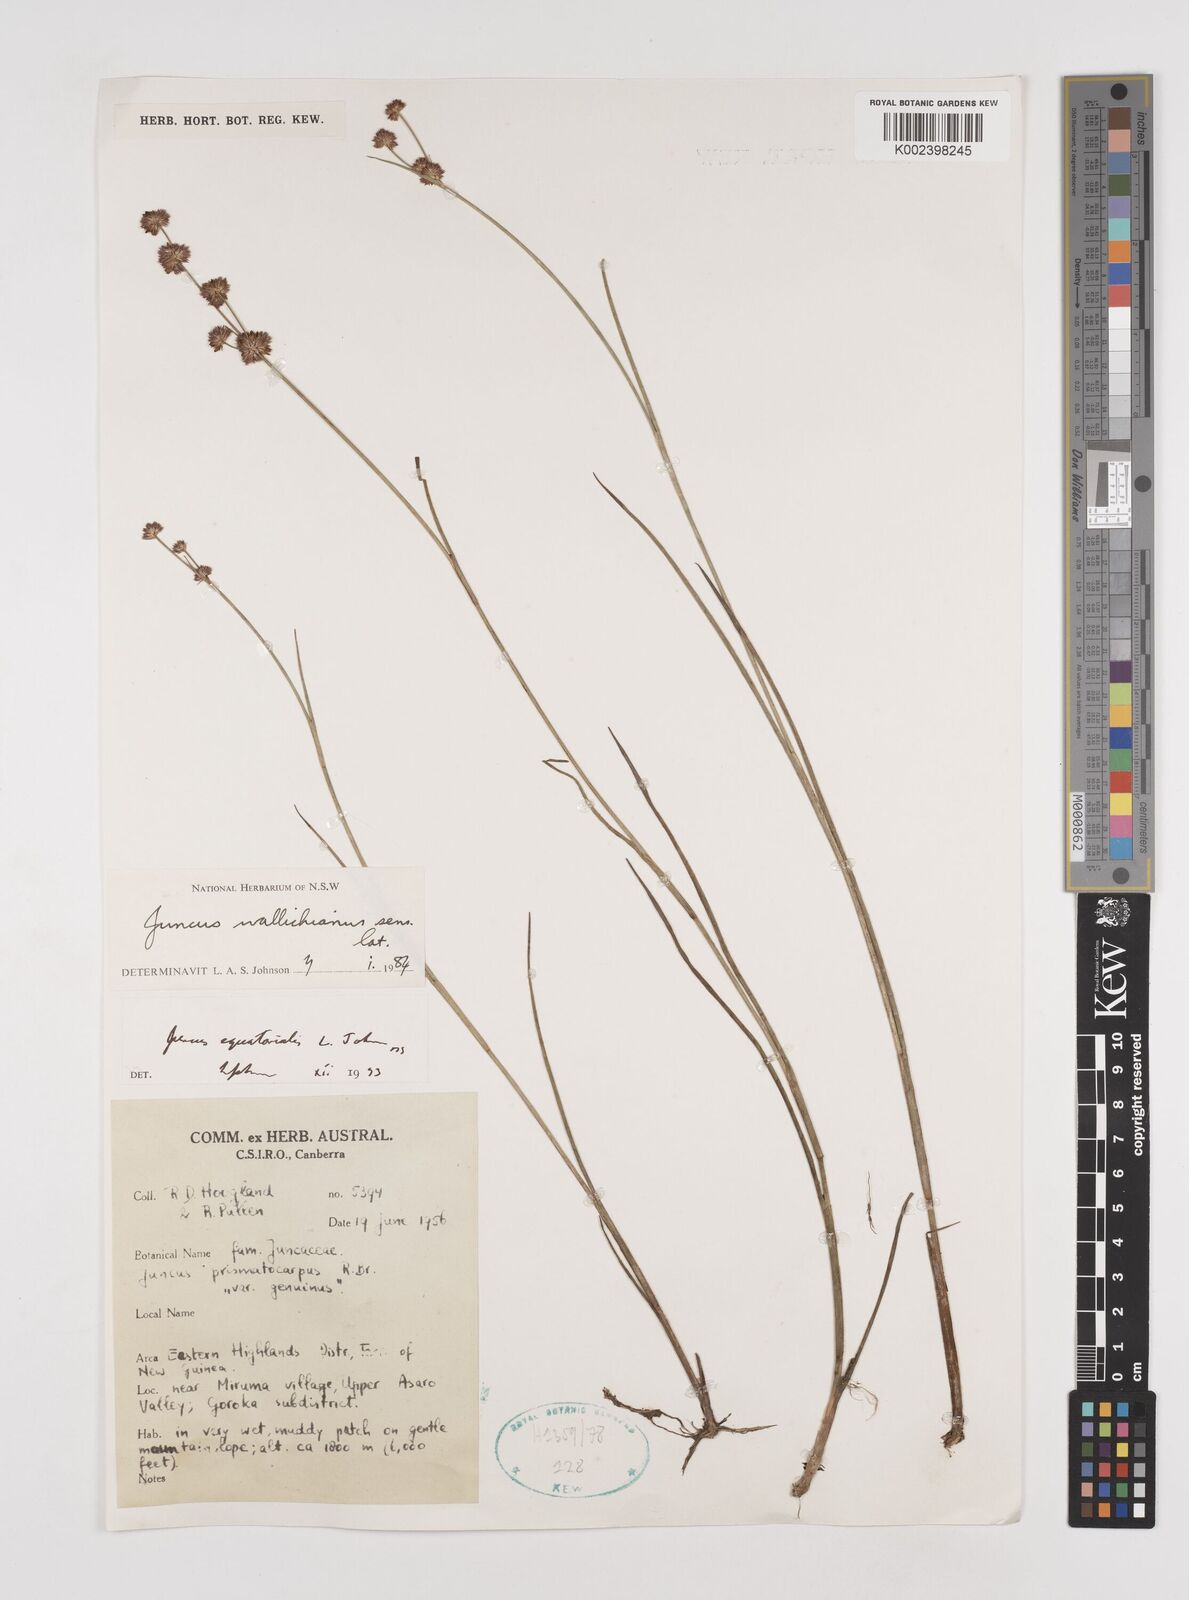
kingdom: Plantae
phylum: Tracheophyta
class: Liliopsida
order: Poales
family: Juncaceae
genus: Juncus
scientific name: Juncus wallichianus
